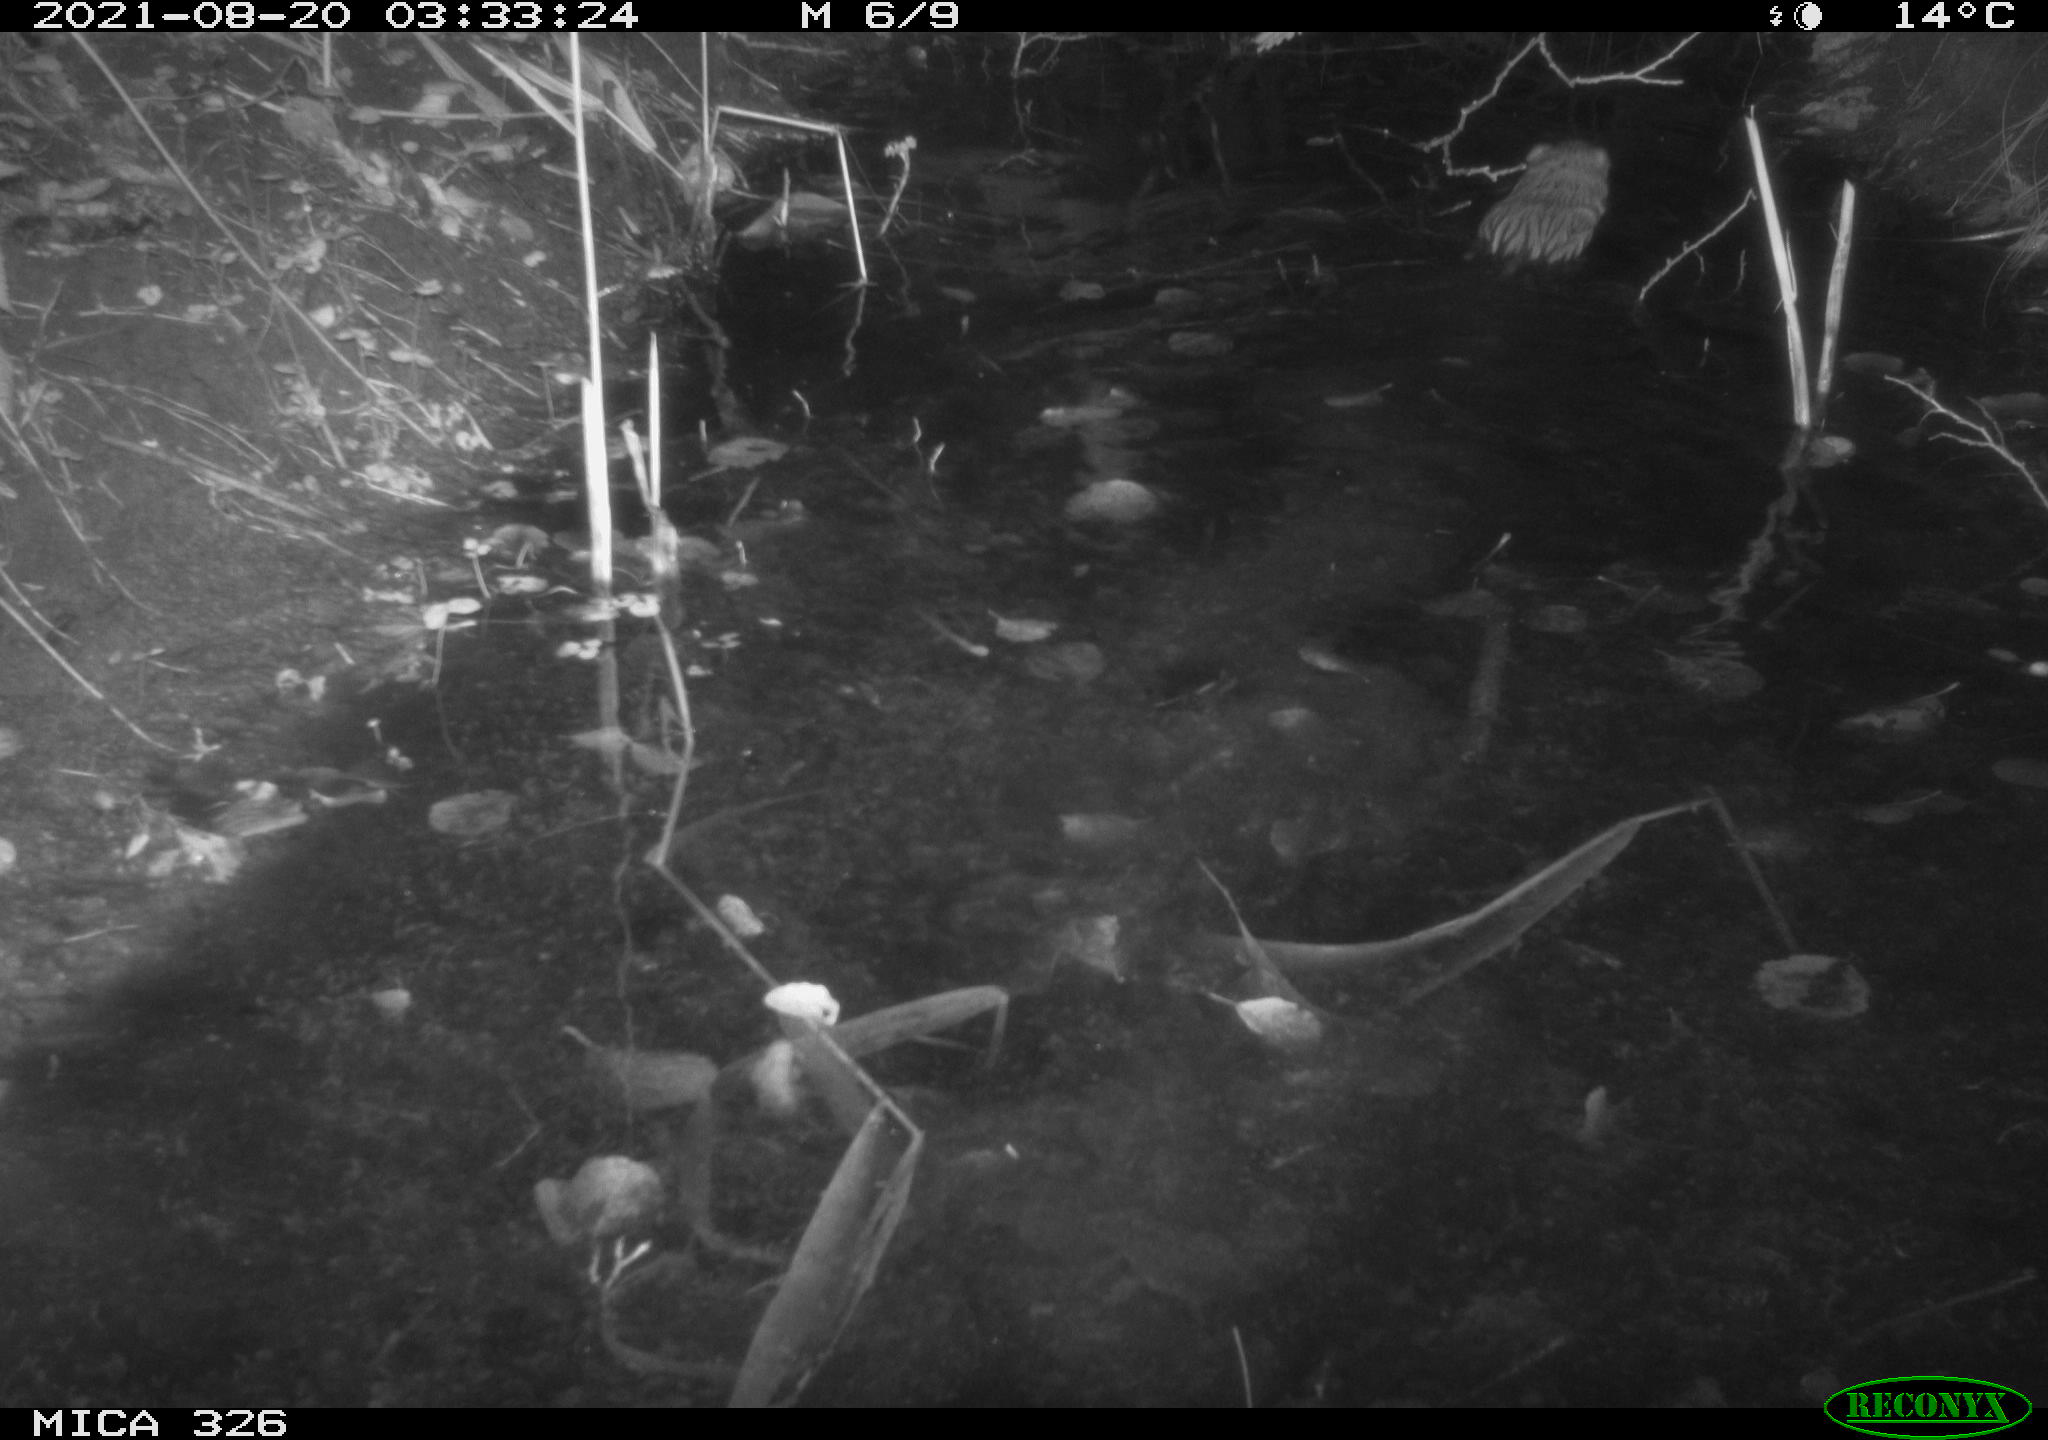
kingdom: Animalia
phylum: Chordata
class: Mammalia
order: Rodentia
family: Cricetidae
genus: Ondatra
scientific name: Ondatra zibethicus
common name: Muskrat
